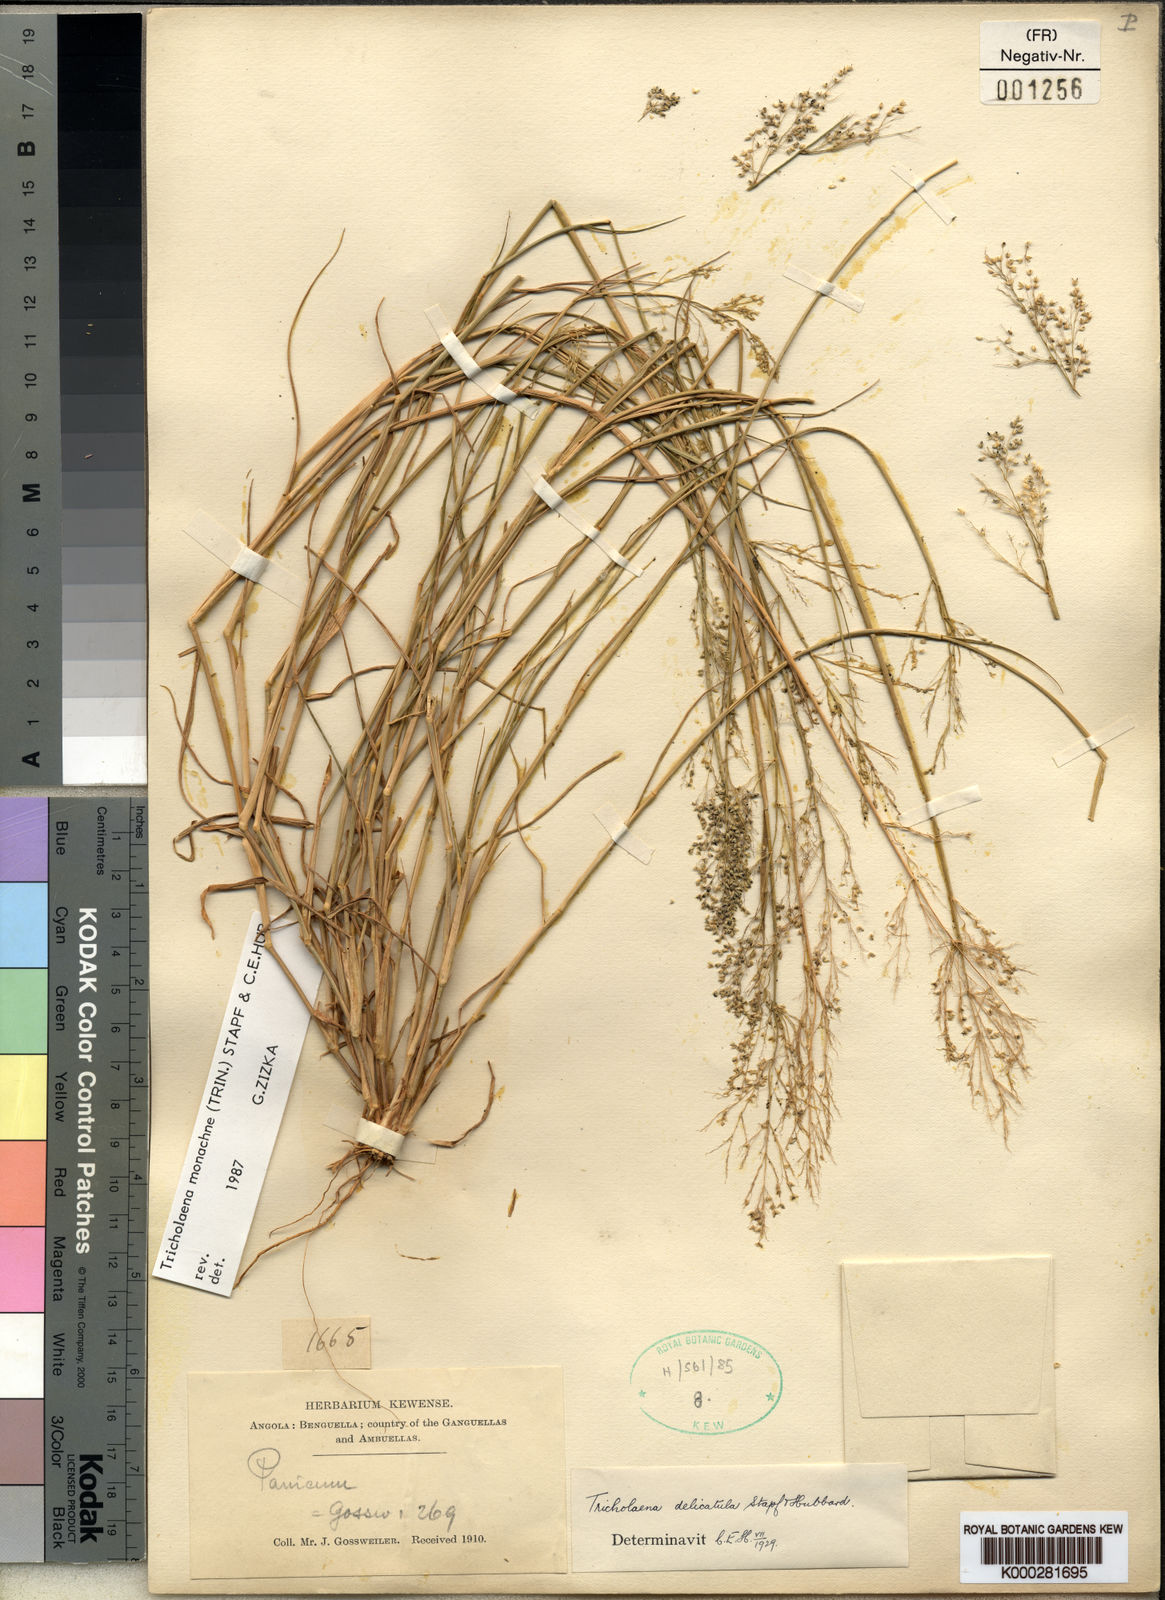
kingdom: Plantae
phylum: Tracheophyta
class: Liliopsida
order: Poales
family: Poaceae
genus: Tricholaena
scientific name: Tricholaena
